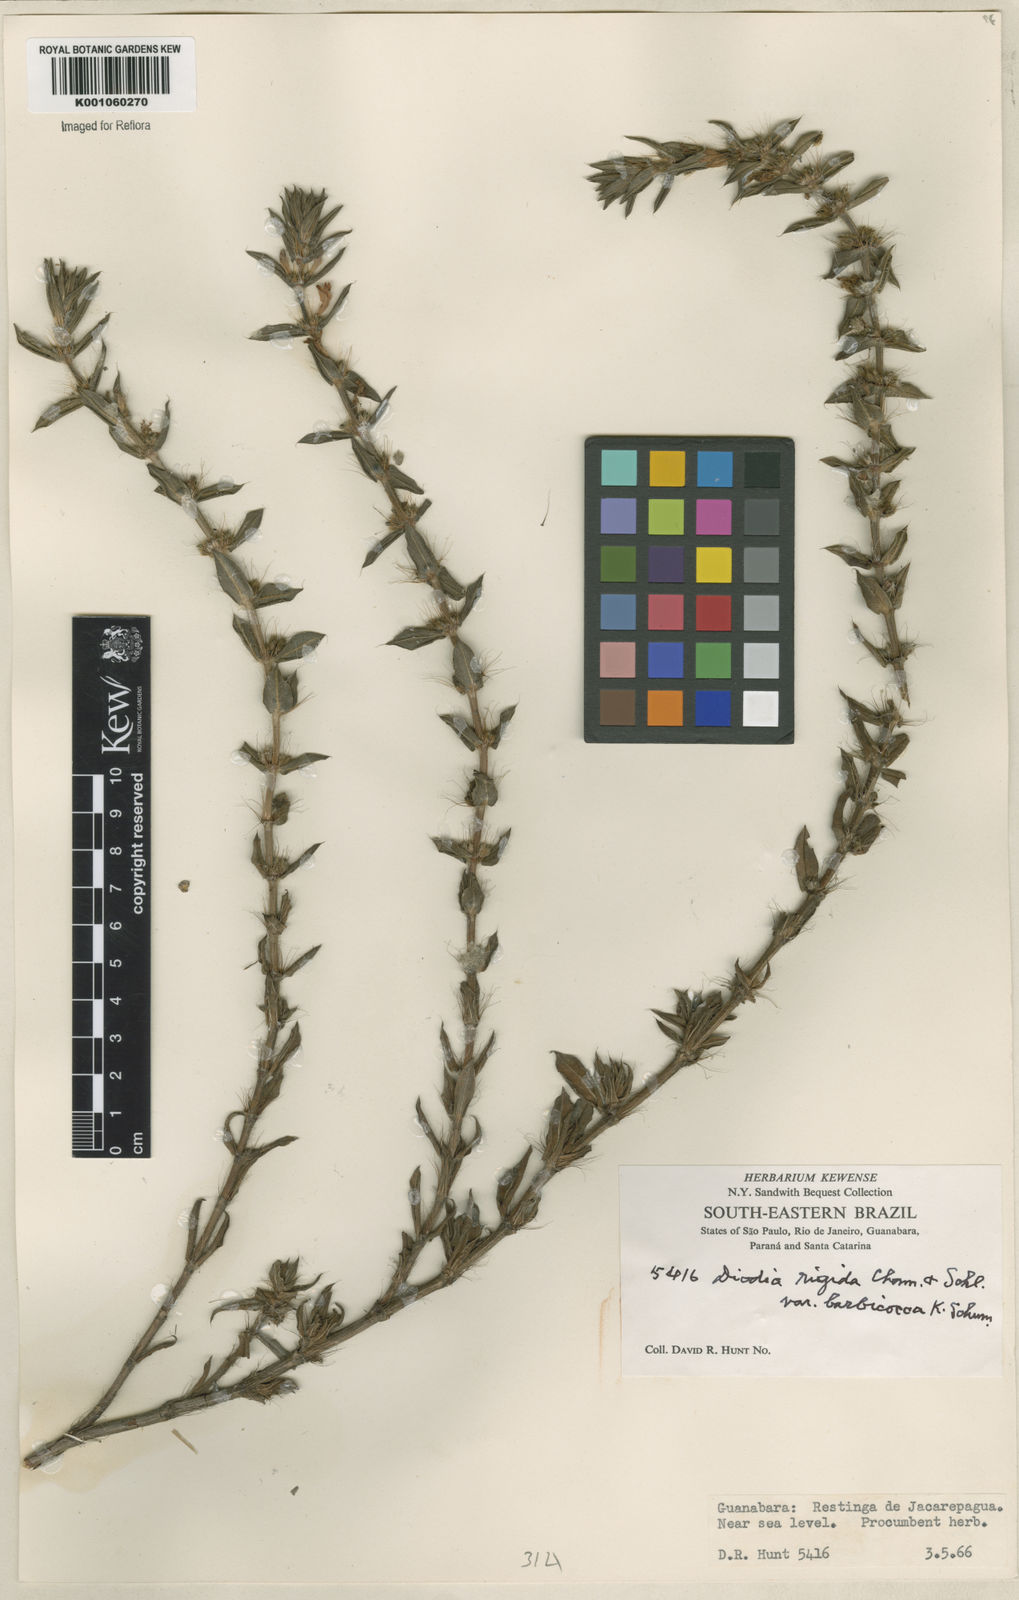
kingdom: Plantae
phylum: Tracheophyta
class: Magnoliopsida
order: Gentianales
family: Rubiaceae
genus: Hexasepalum
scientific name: Hexasepalum apiculatum
